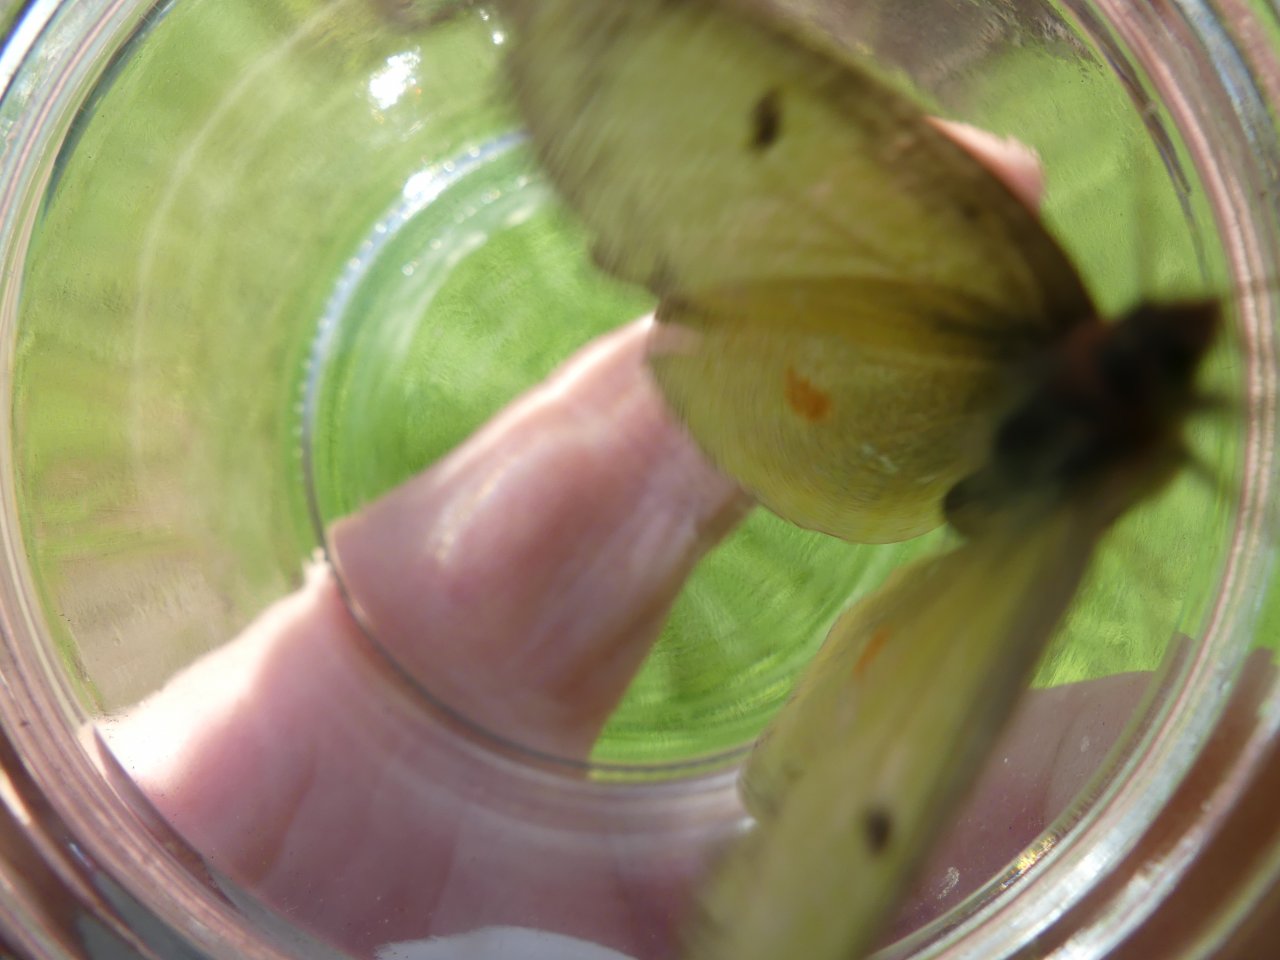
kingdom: Animalia
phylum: Arthropoda
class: Insecta
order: Lepidoptera
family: Pieridae
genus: Colias
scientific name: Colias
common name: Clouded Yellows
